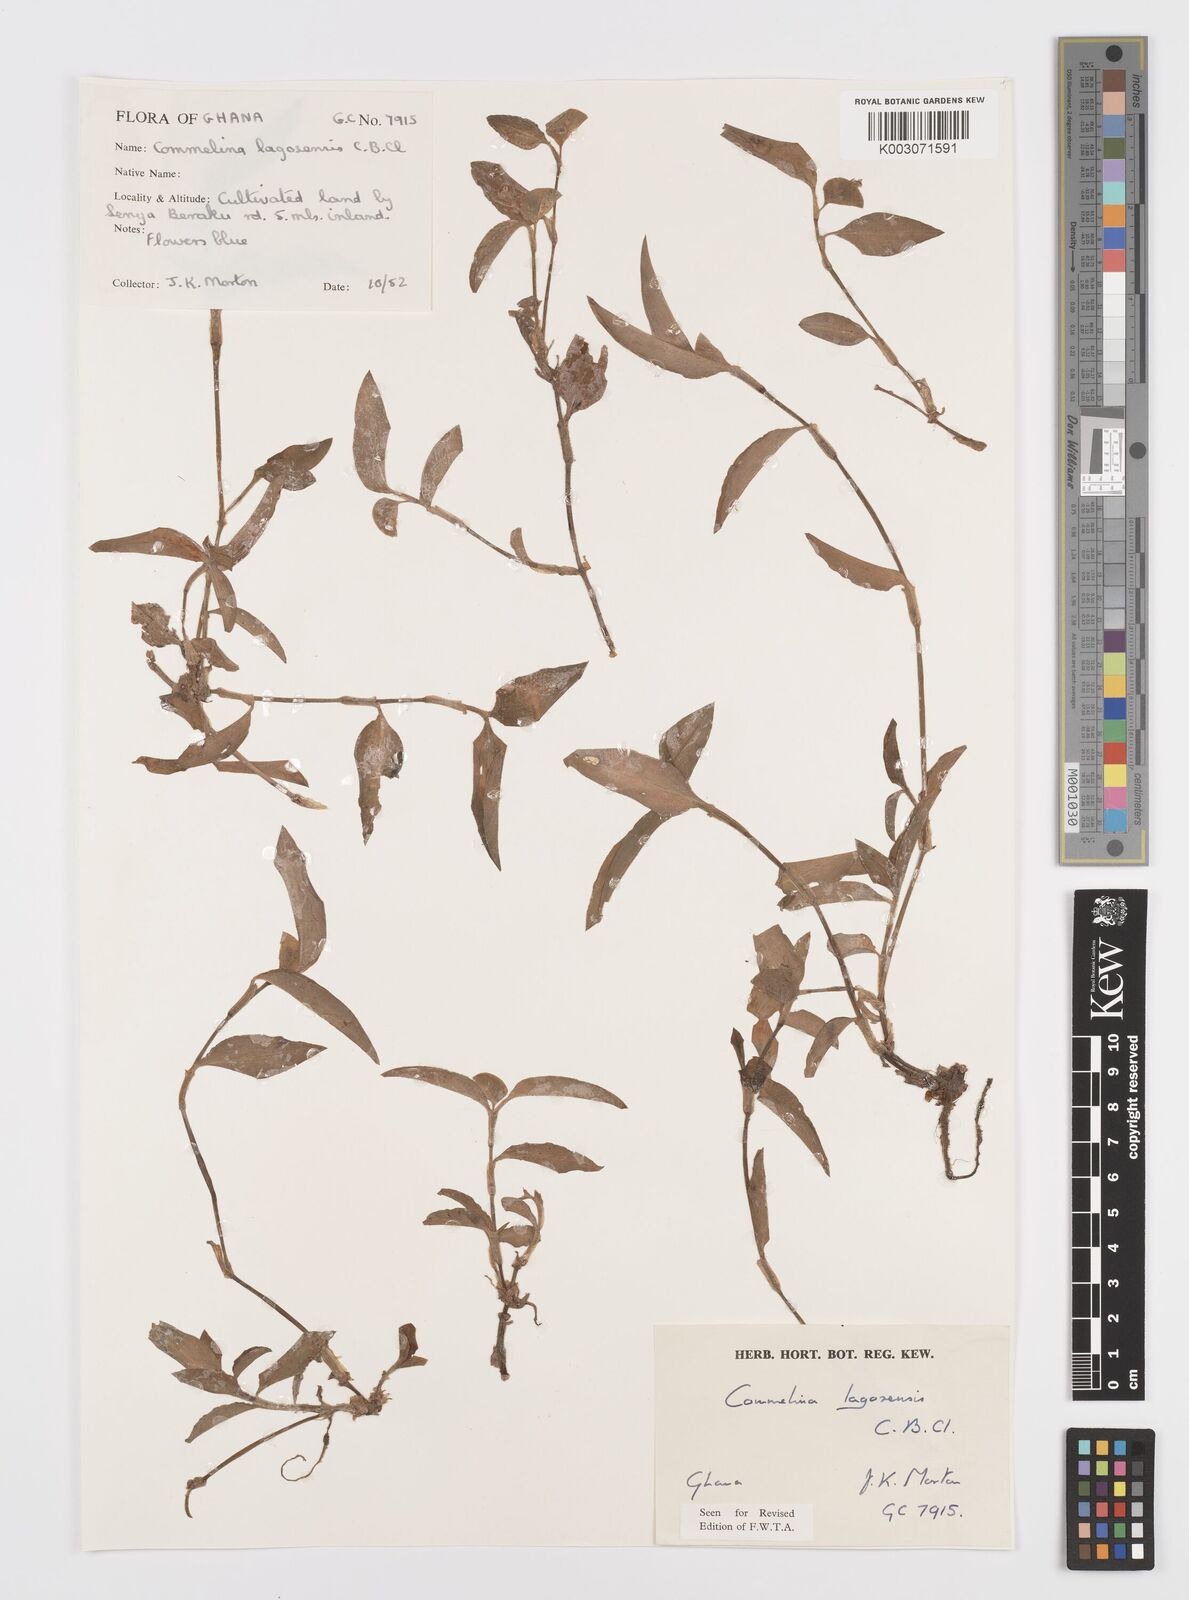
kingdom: Plantae
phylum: Tracheophyta
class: Liliopsida
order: Commelinales
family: Commelinaceae
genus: Commelina
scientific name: Commelina bracteosa
